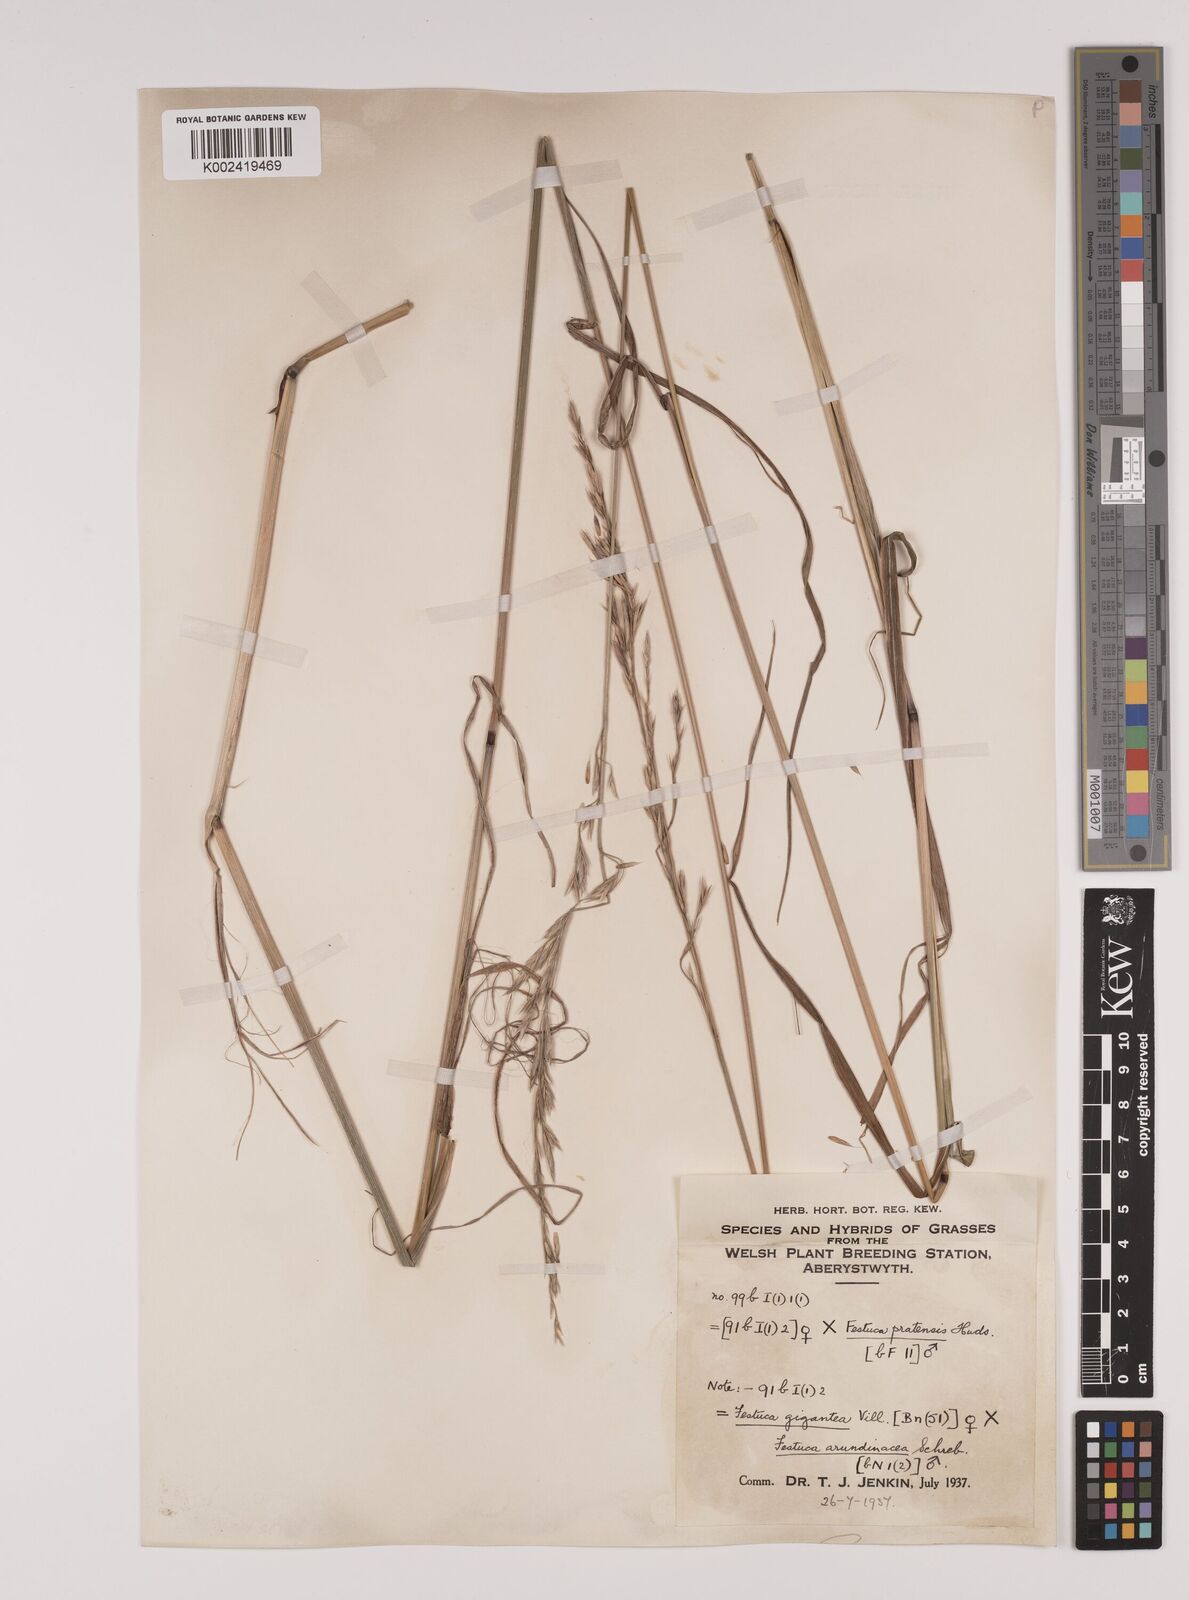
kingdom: Plantae
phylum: Tracheophyta
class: Liliopsida
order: Poales
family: Poaceae
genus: Lolium
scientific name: Lolium giganteum
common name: Giant fescue
